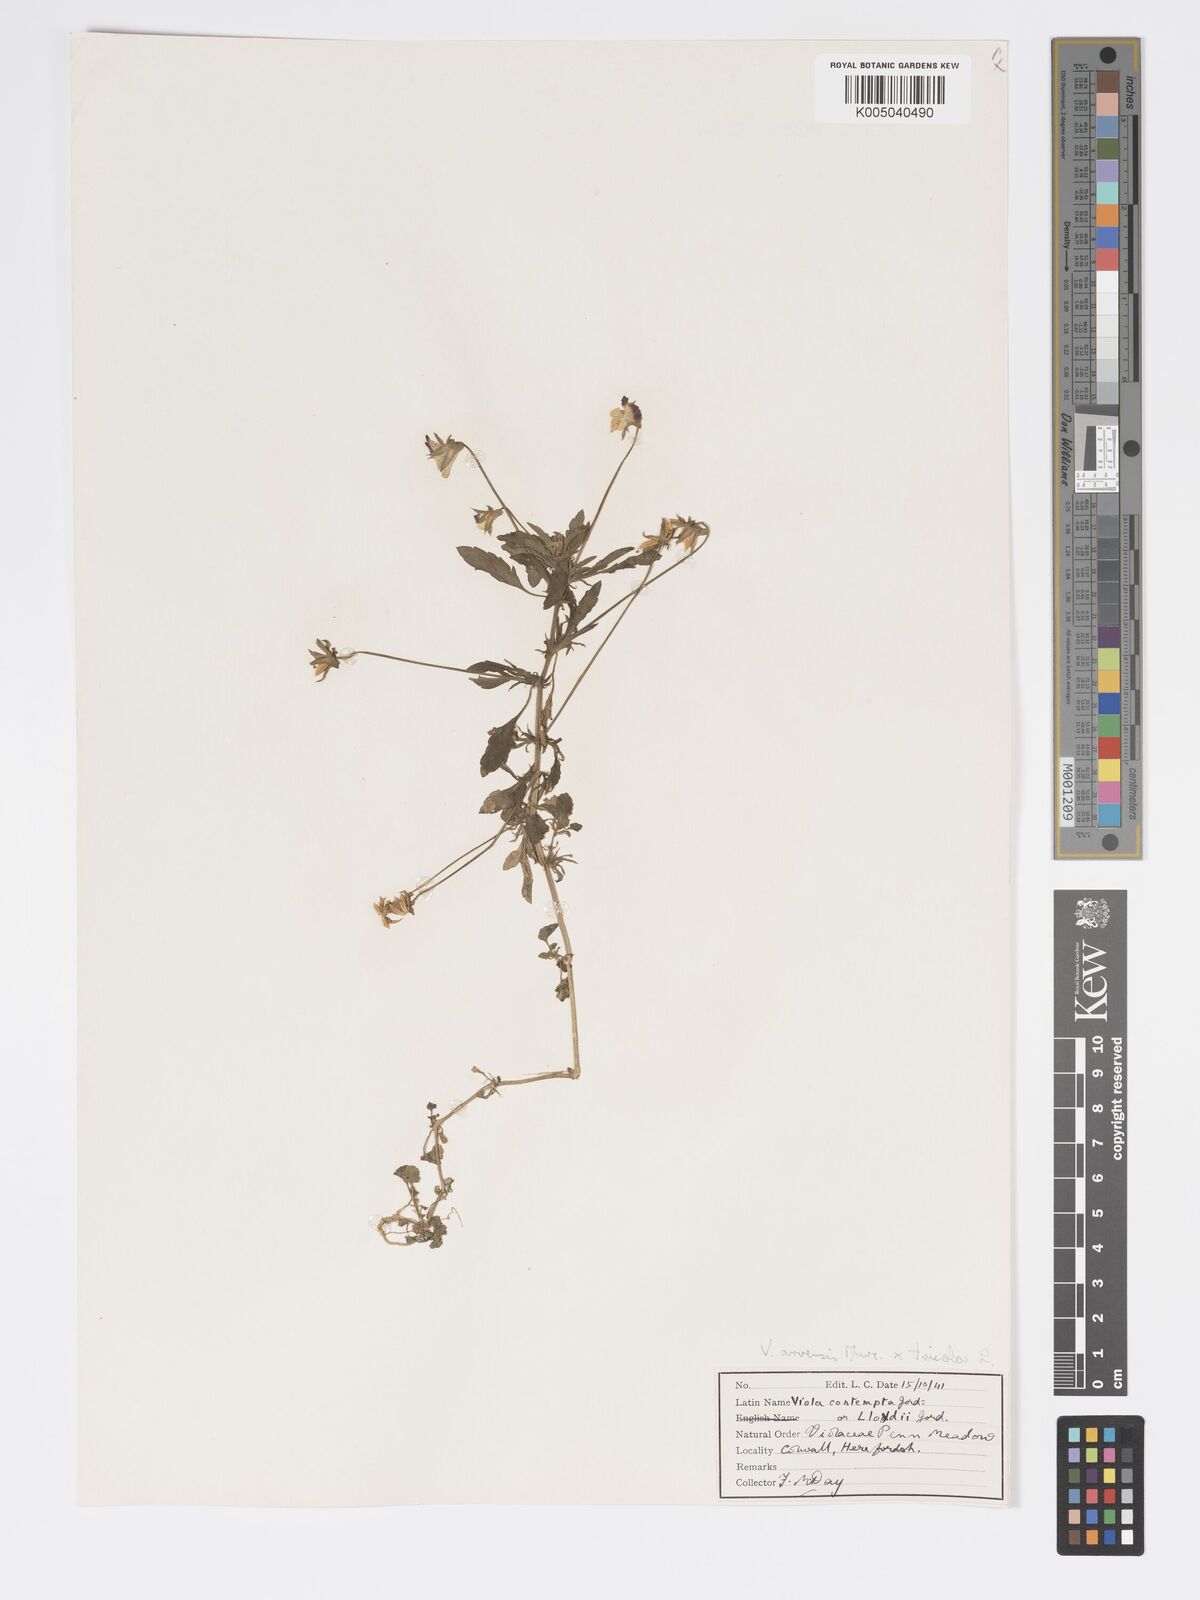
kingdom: Plantae
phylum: Tracheophyta
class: Magnoliopsida
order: Malpighiales
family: Violaceae
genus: Viola
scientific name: Viola arvensis
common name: Field pansy
